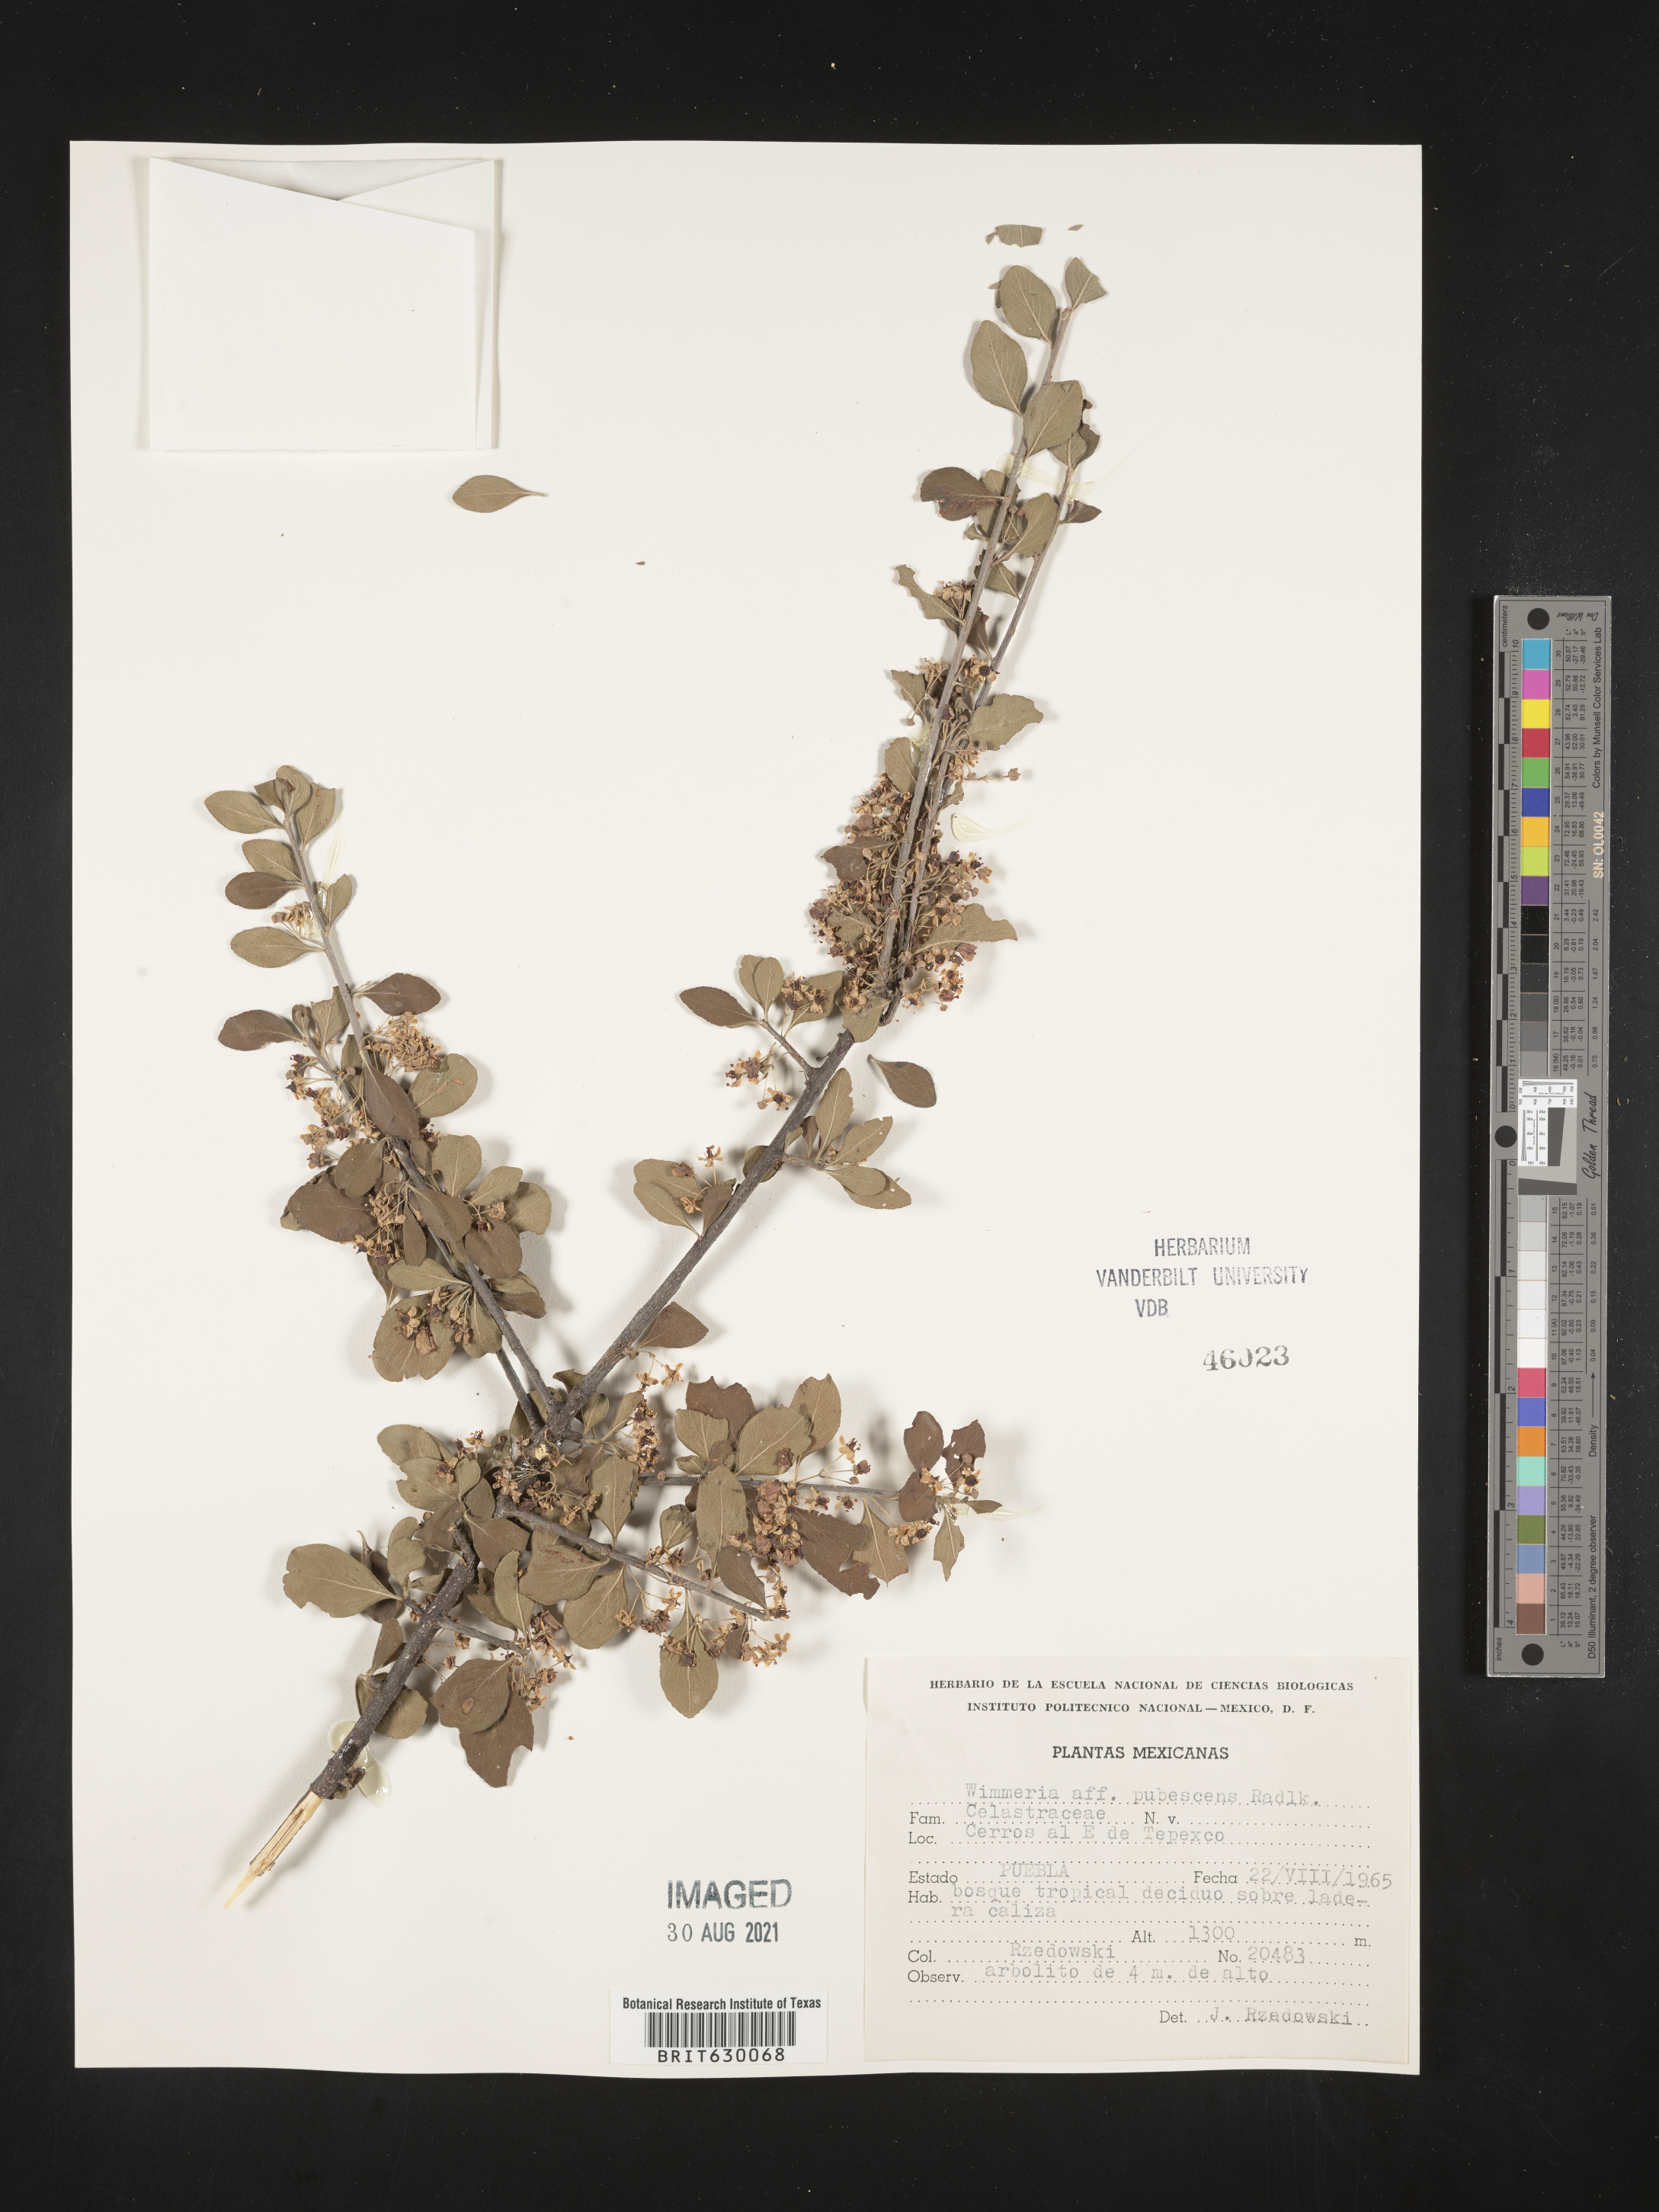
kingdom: Plantae
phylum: Tracheophyta
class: Magnoliopsida
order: Celastrales
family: Celastraceae
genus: Wimmeria
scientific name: Wimmeria
